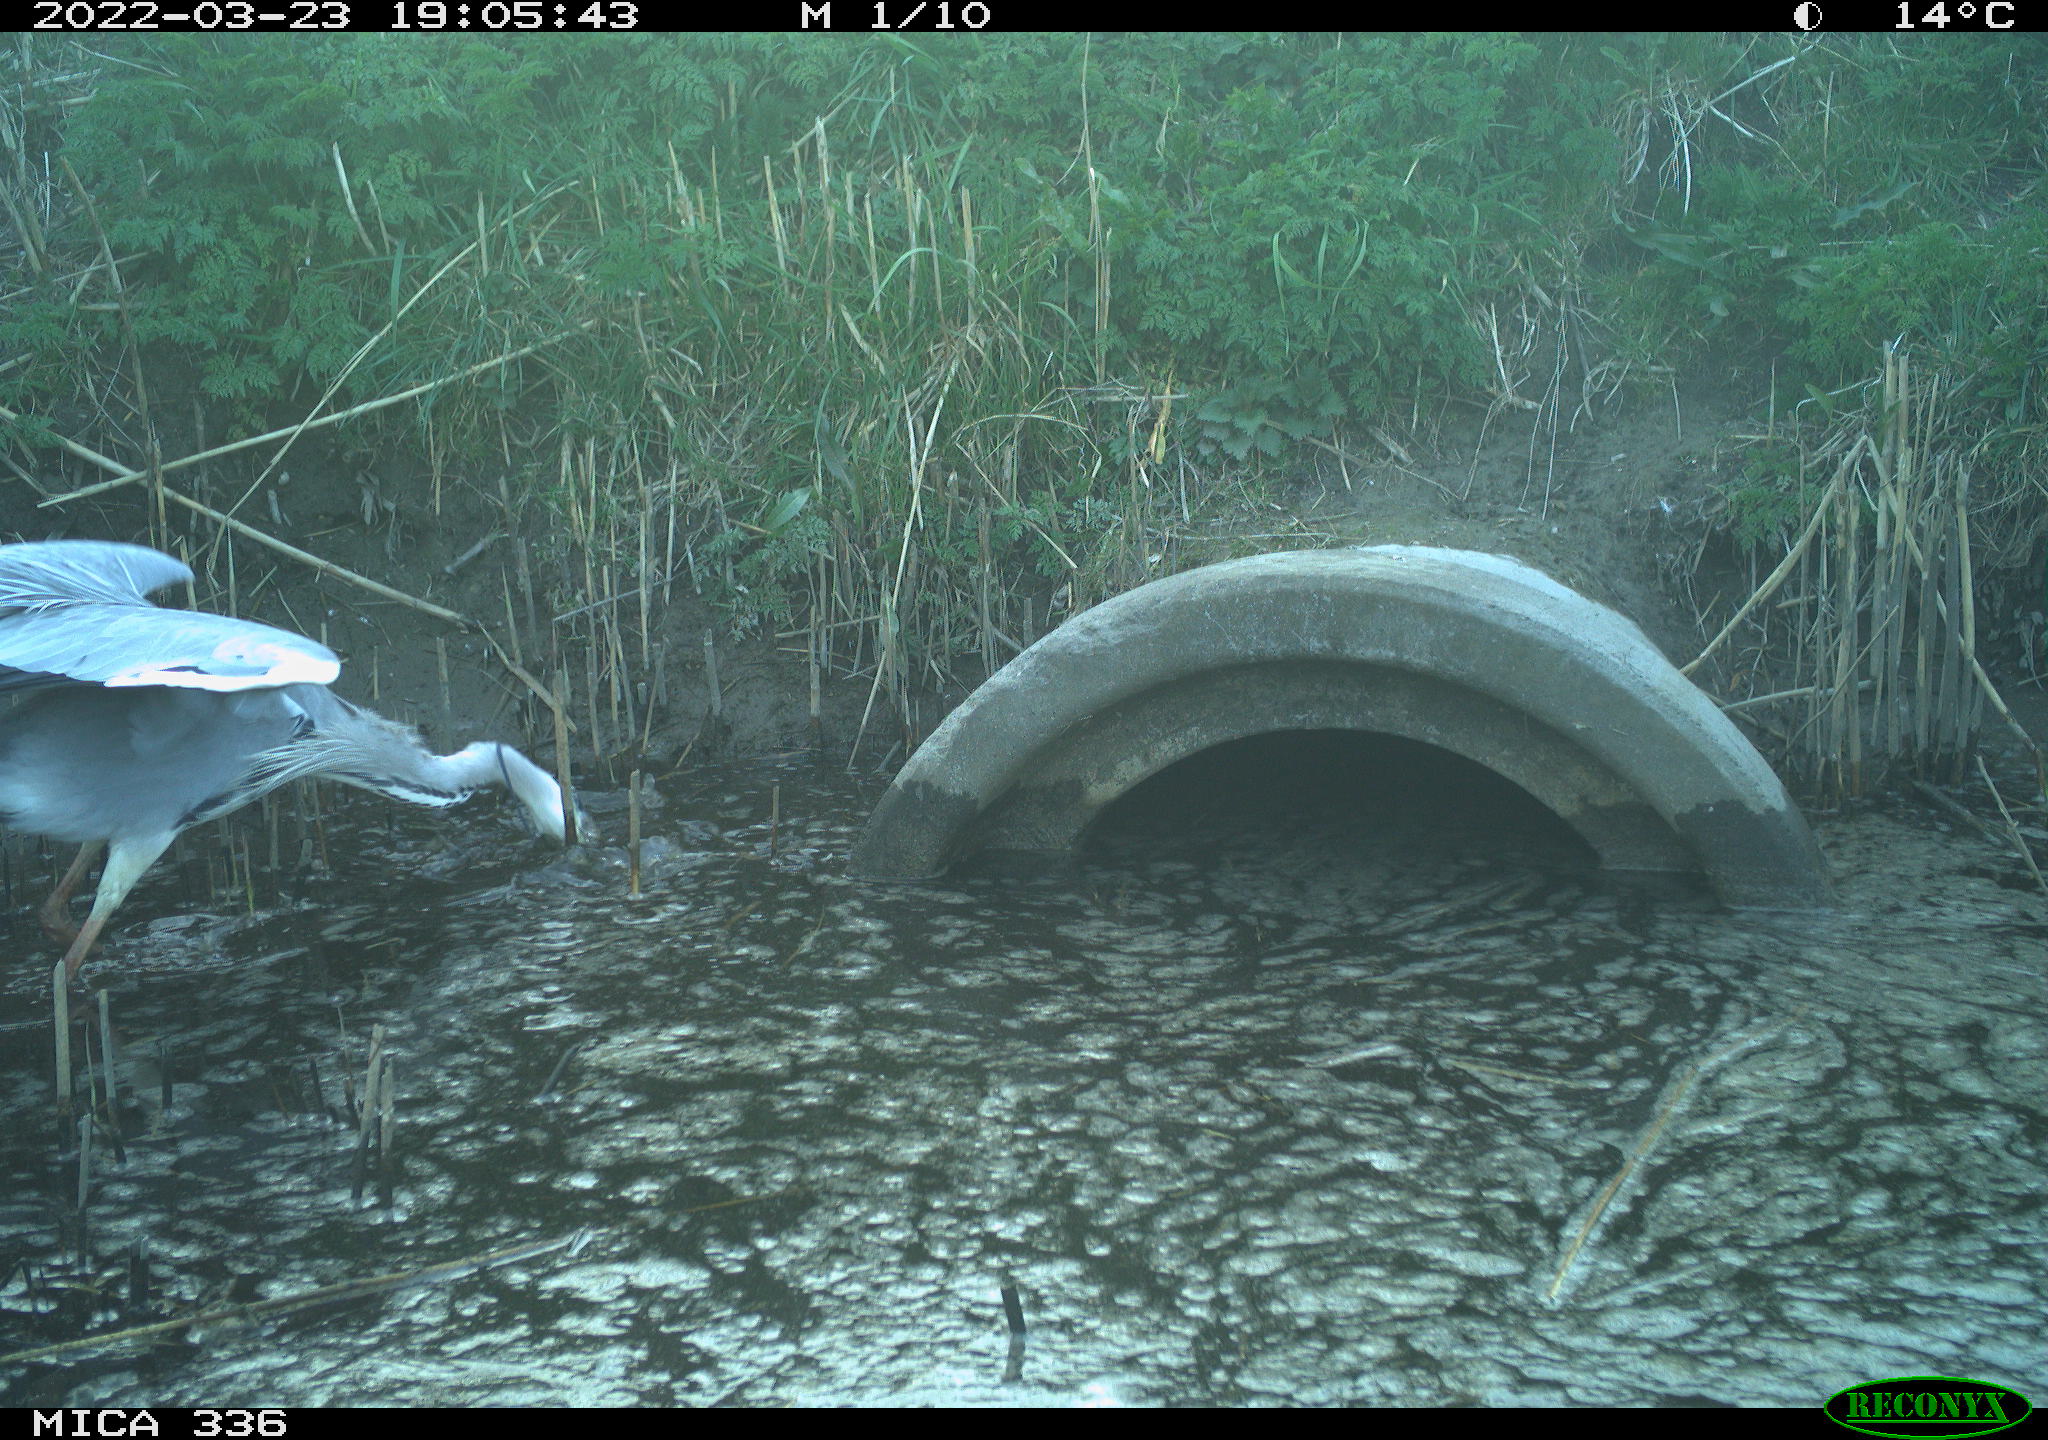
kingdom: Animalia
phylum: Chordata
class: Aves
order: Pelecaniformes
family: Ardeidae
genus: Ardea
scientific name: Ardea cinerea
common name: Grey heron
